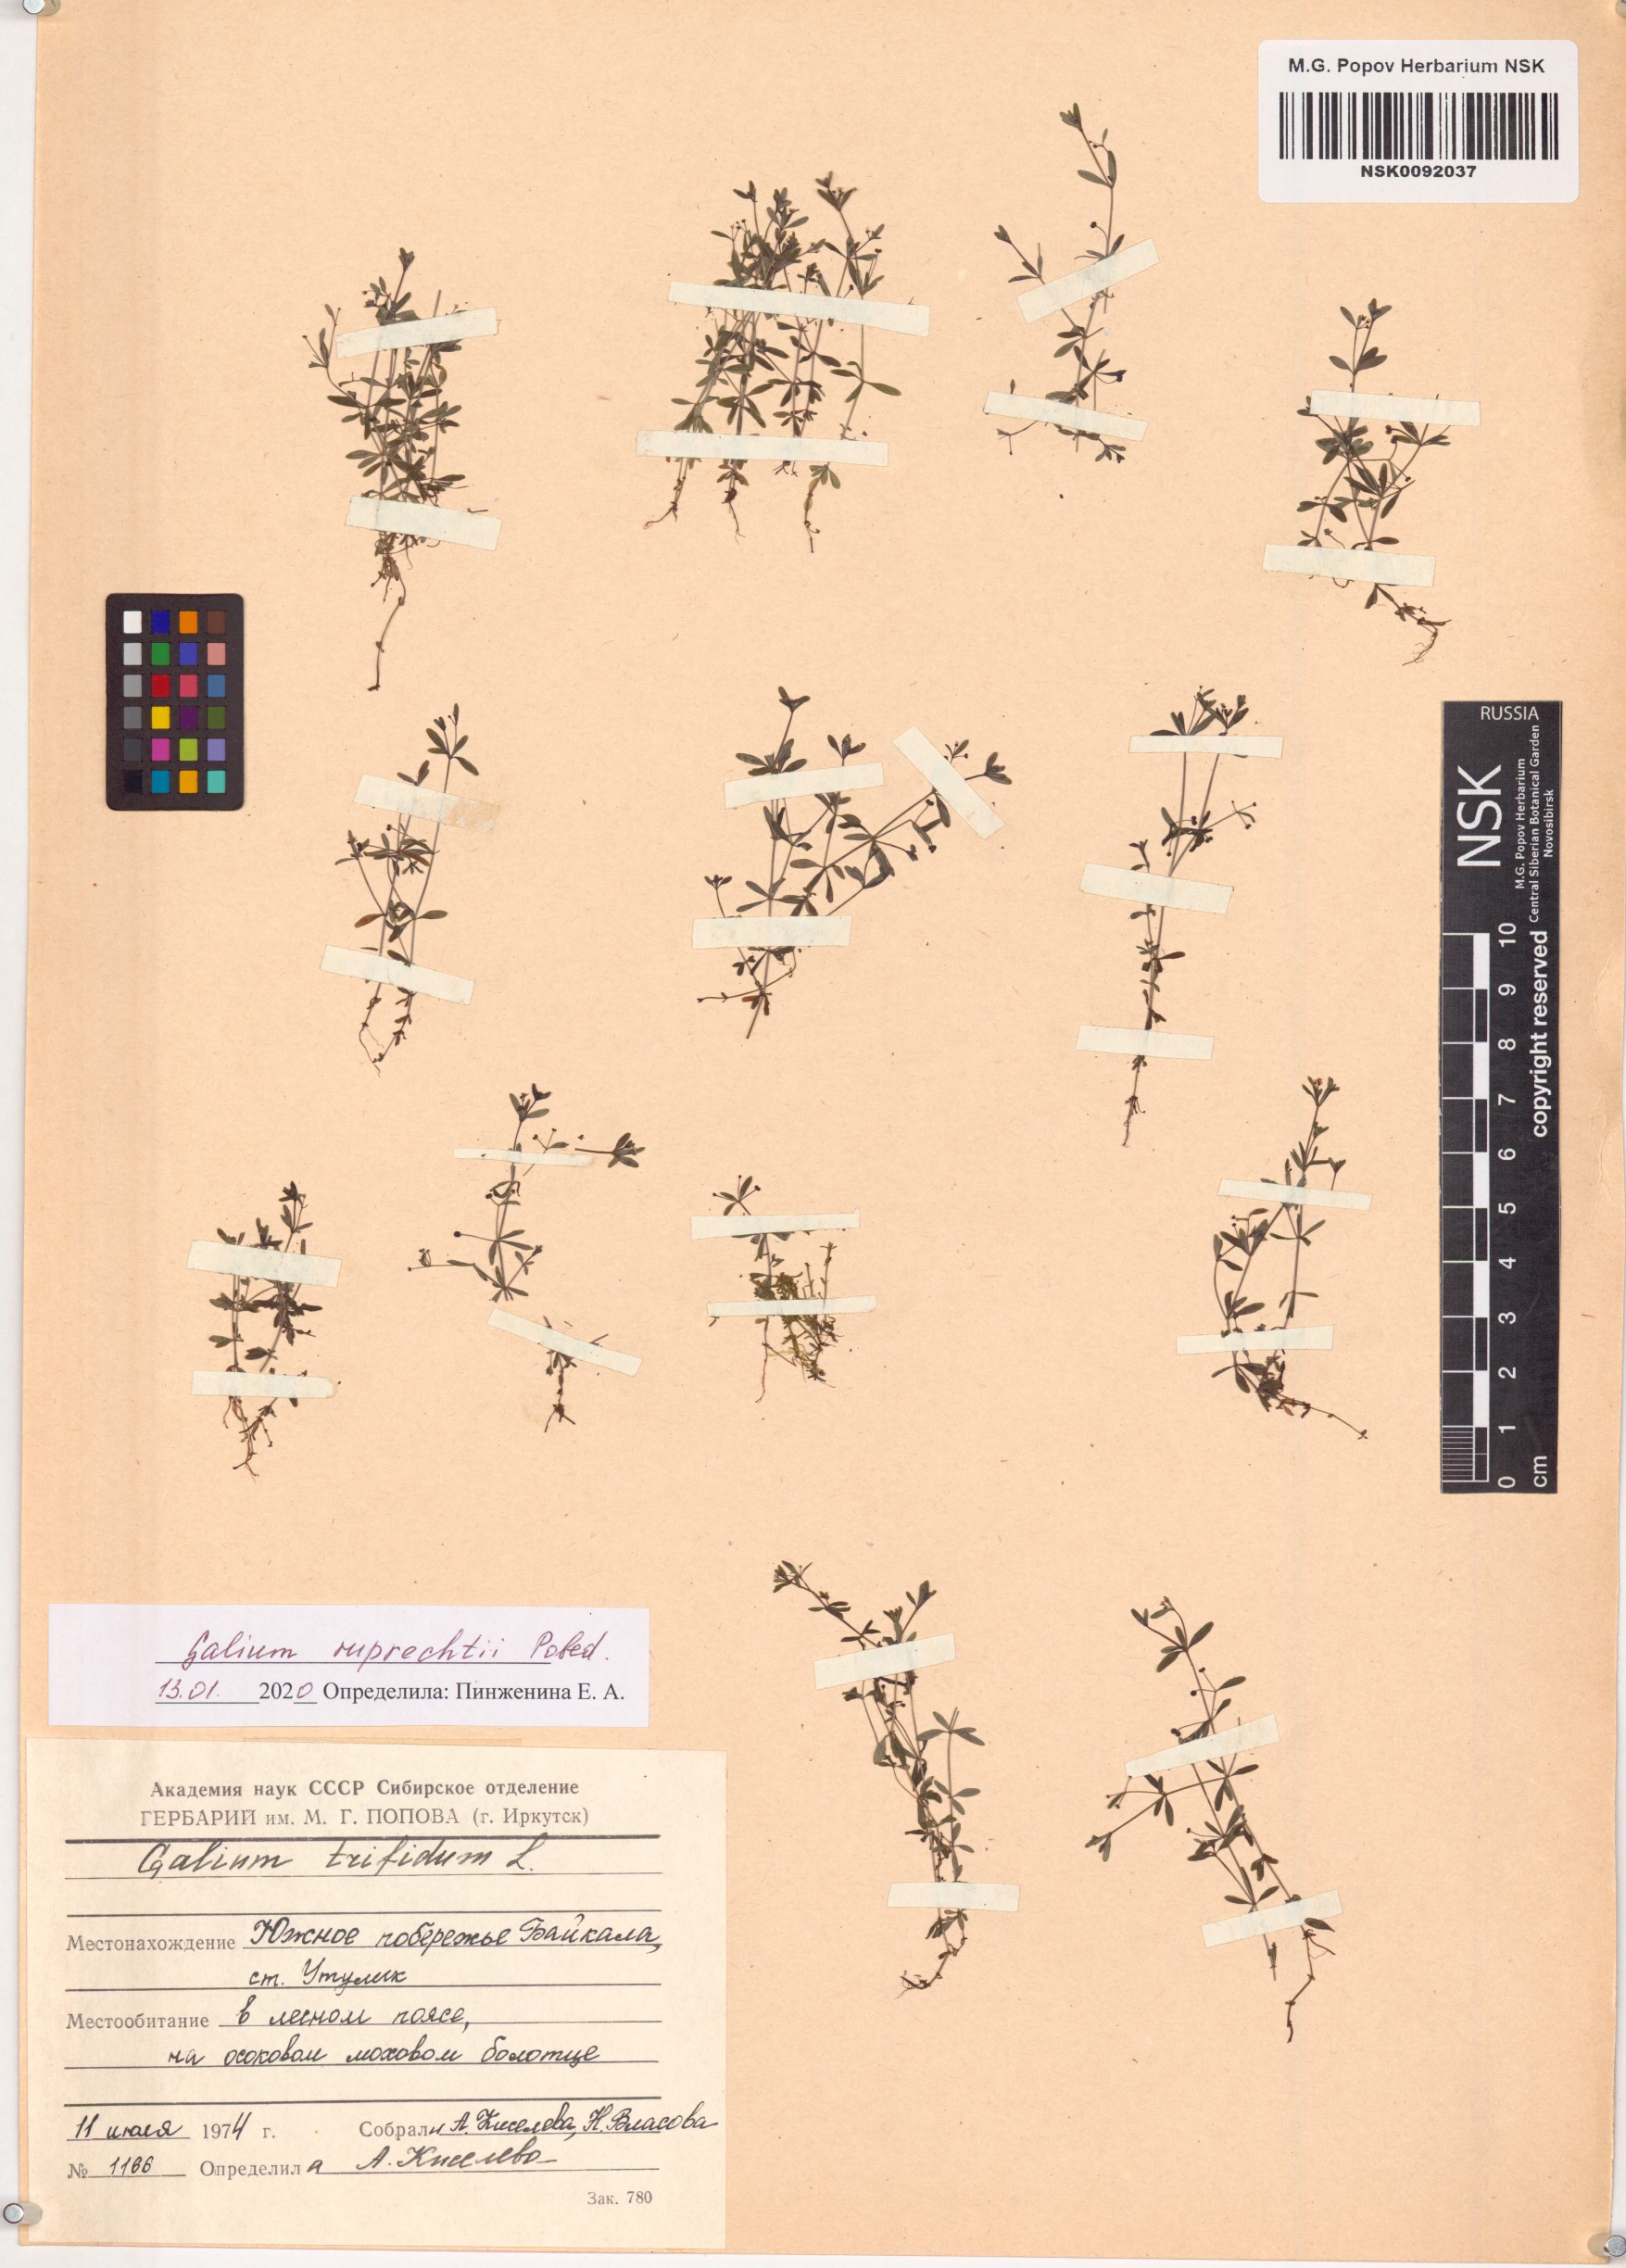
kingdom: Plantae
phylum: Tracheophyta
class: Magnoliopsida
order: Gentianales
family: Rubiaceae
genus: Galium
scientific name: Galium trifidum
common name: Small bedstraw
